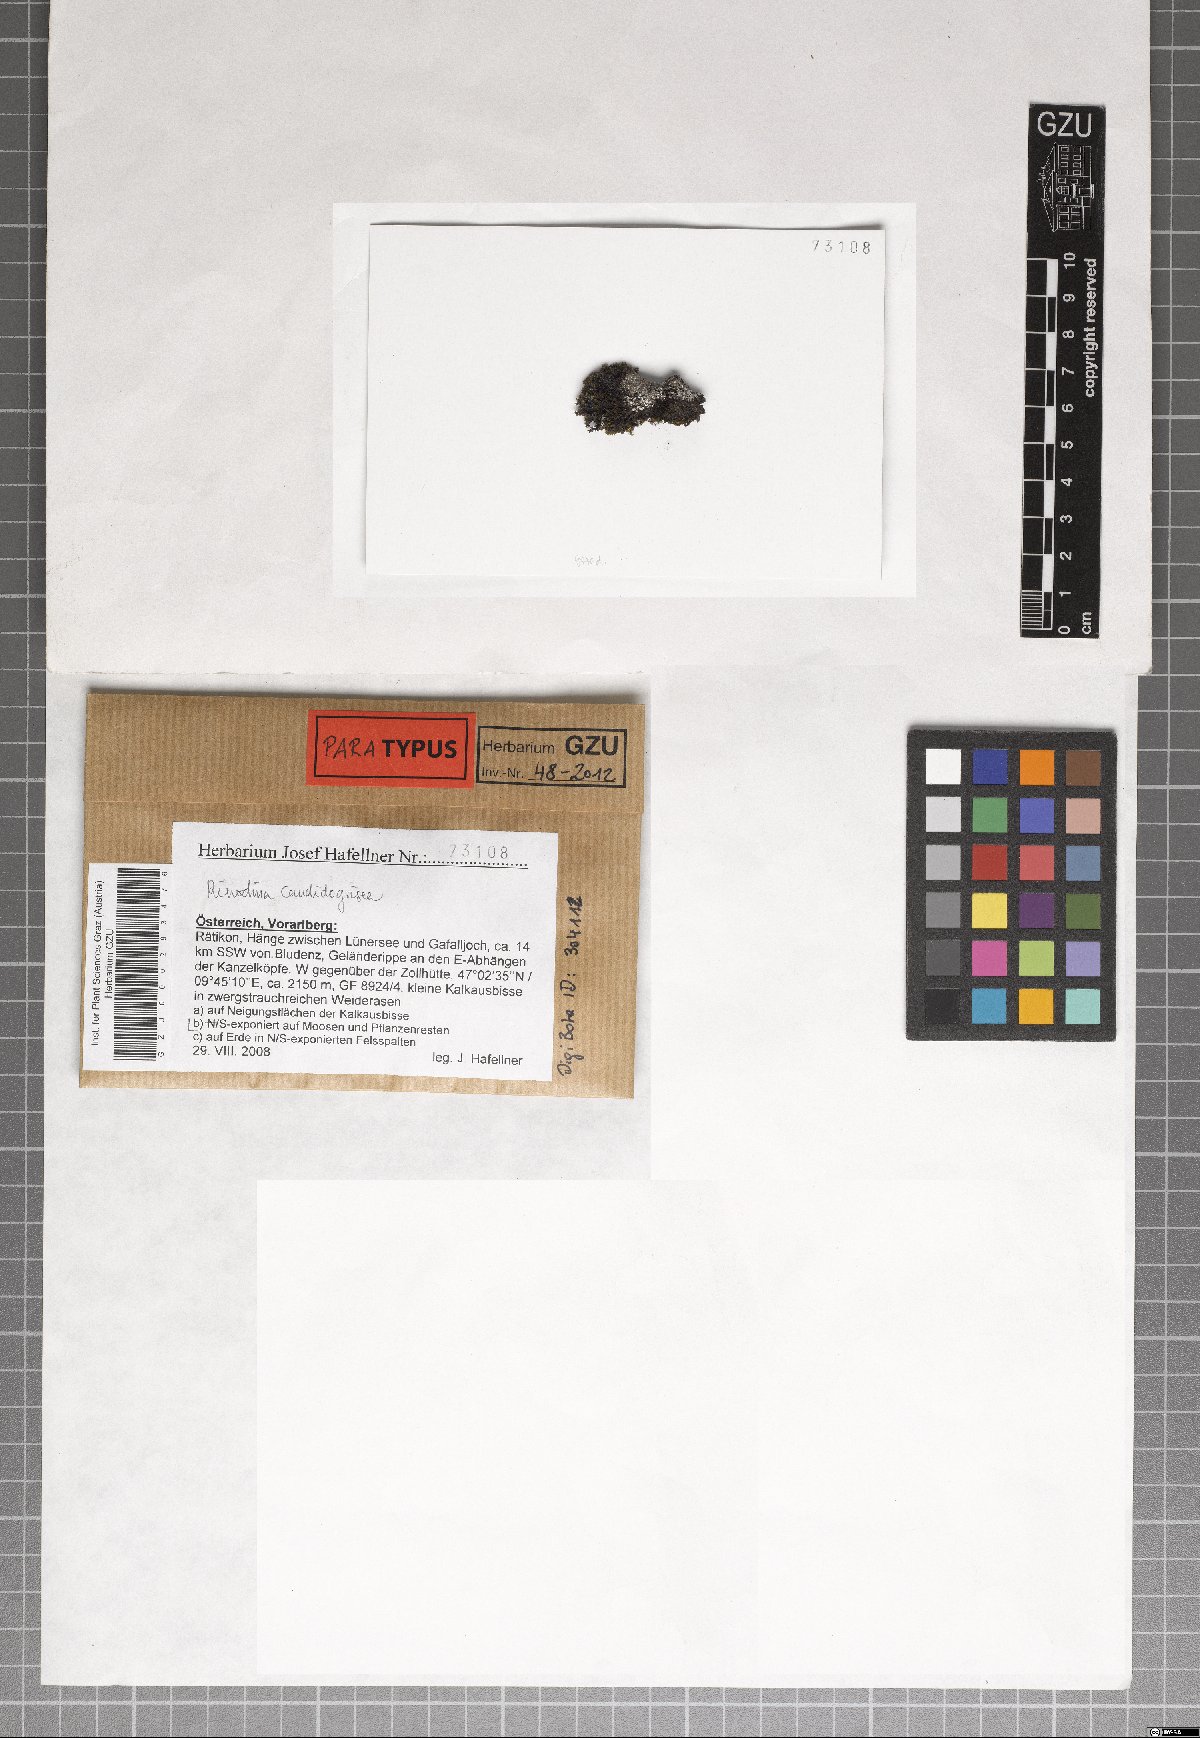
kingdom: Fungi
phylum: Ascomycota
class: Lecanoromycetes
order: Caliciales
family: Physciaceae
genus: Kudratovia
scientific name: Kudratovia candidogrisea
